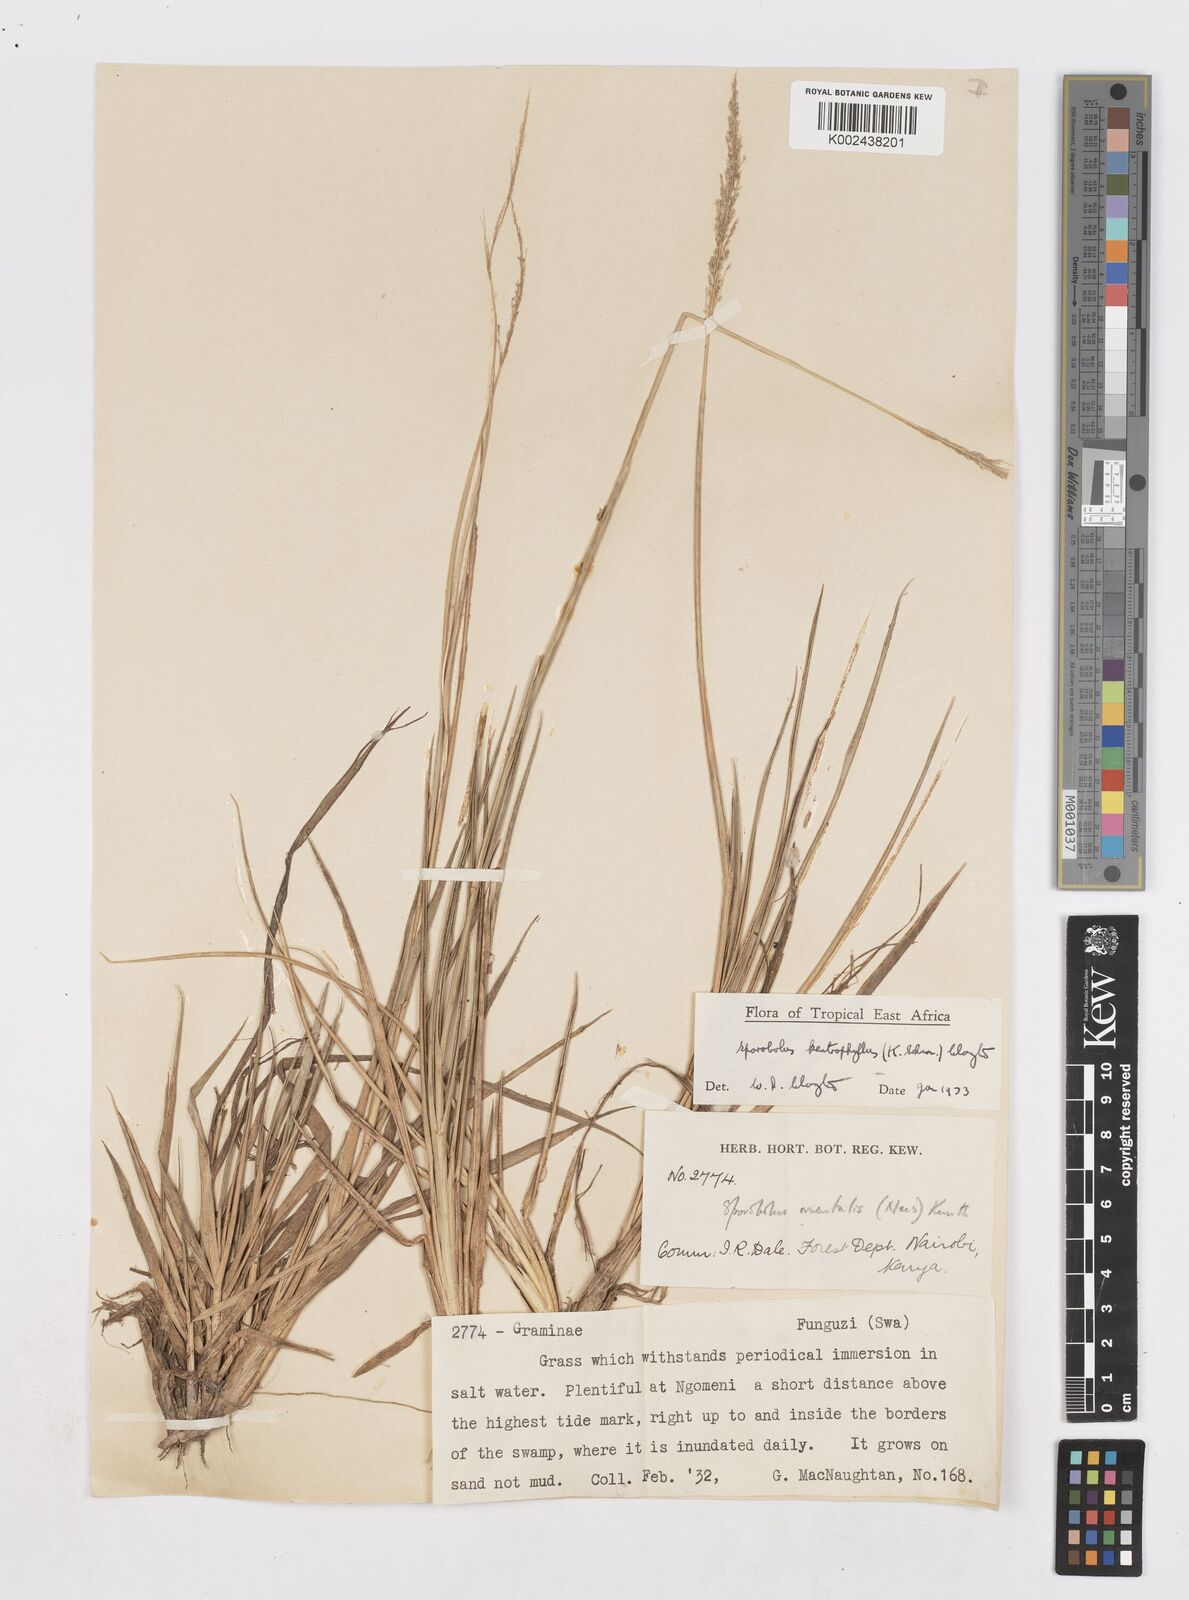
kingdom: Plantae
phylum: Tracheophyta
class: Liliopsida
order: Poales
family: Poaceae
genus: Sporobolus
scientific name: Sporobolus ioclados
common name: Pan dropseed
